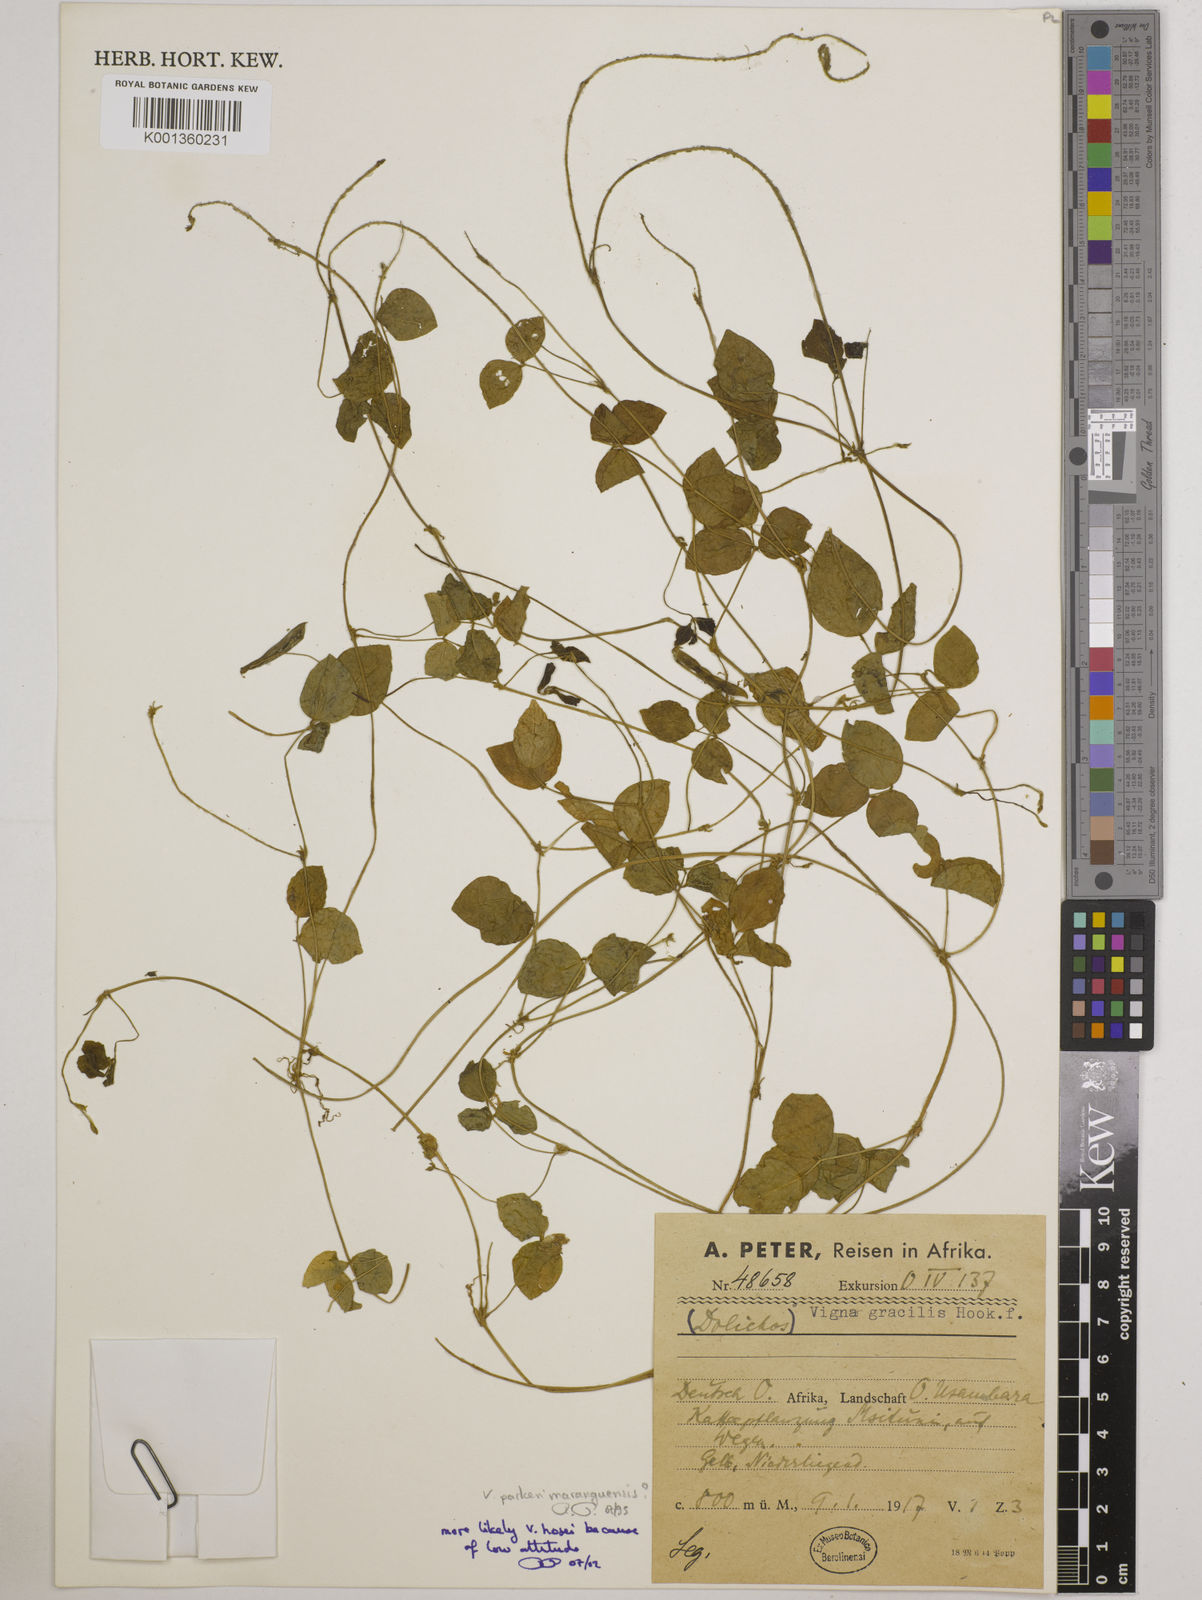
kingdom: Plantae
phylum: Tracheophyta
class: Magnoliopsida
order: Fabales
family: Fabaceae
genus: Vigna
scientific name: Vigna hosei
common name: Sarawak-bean
